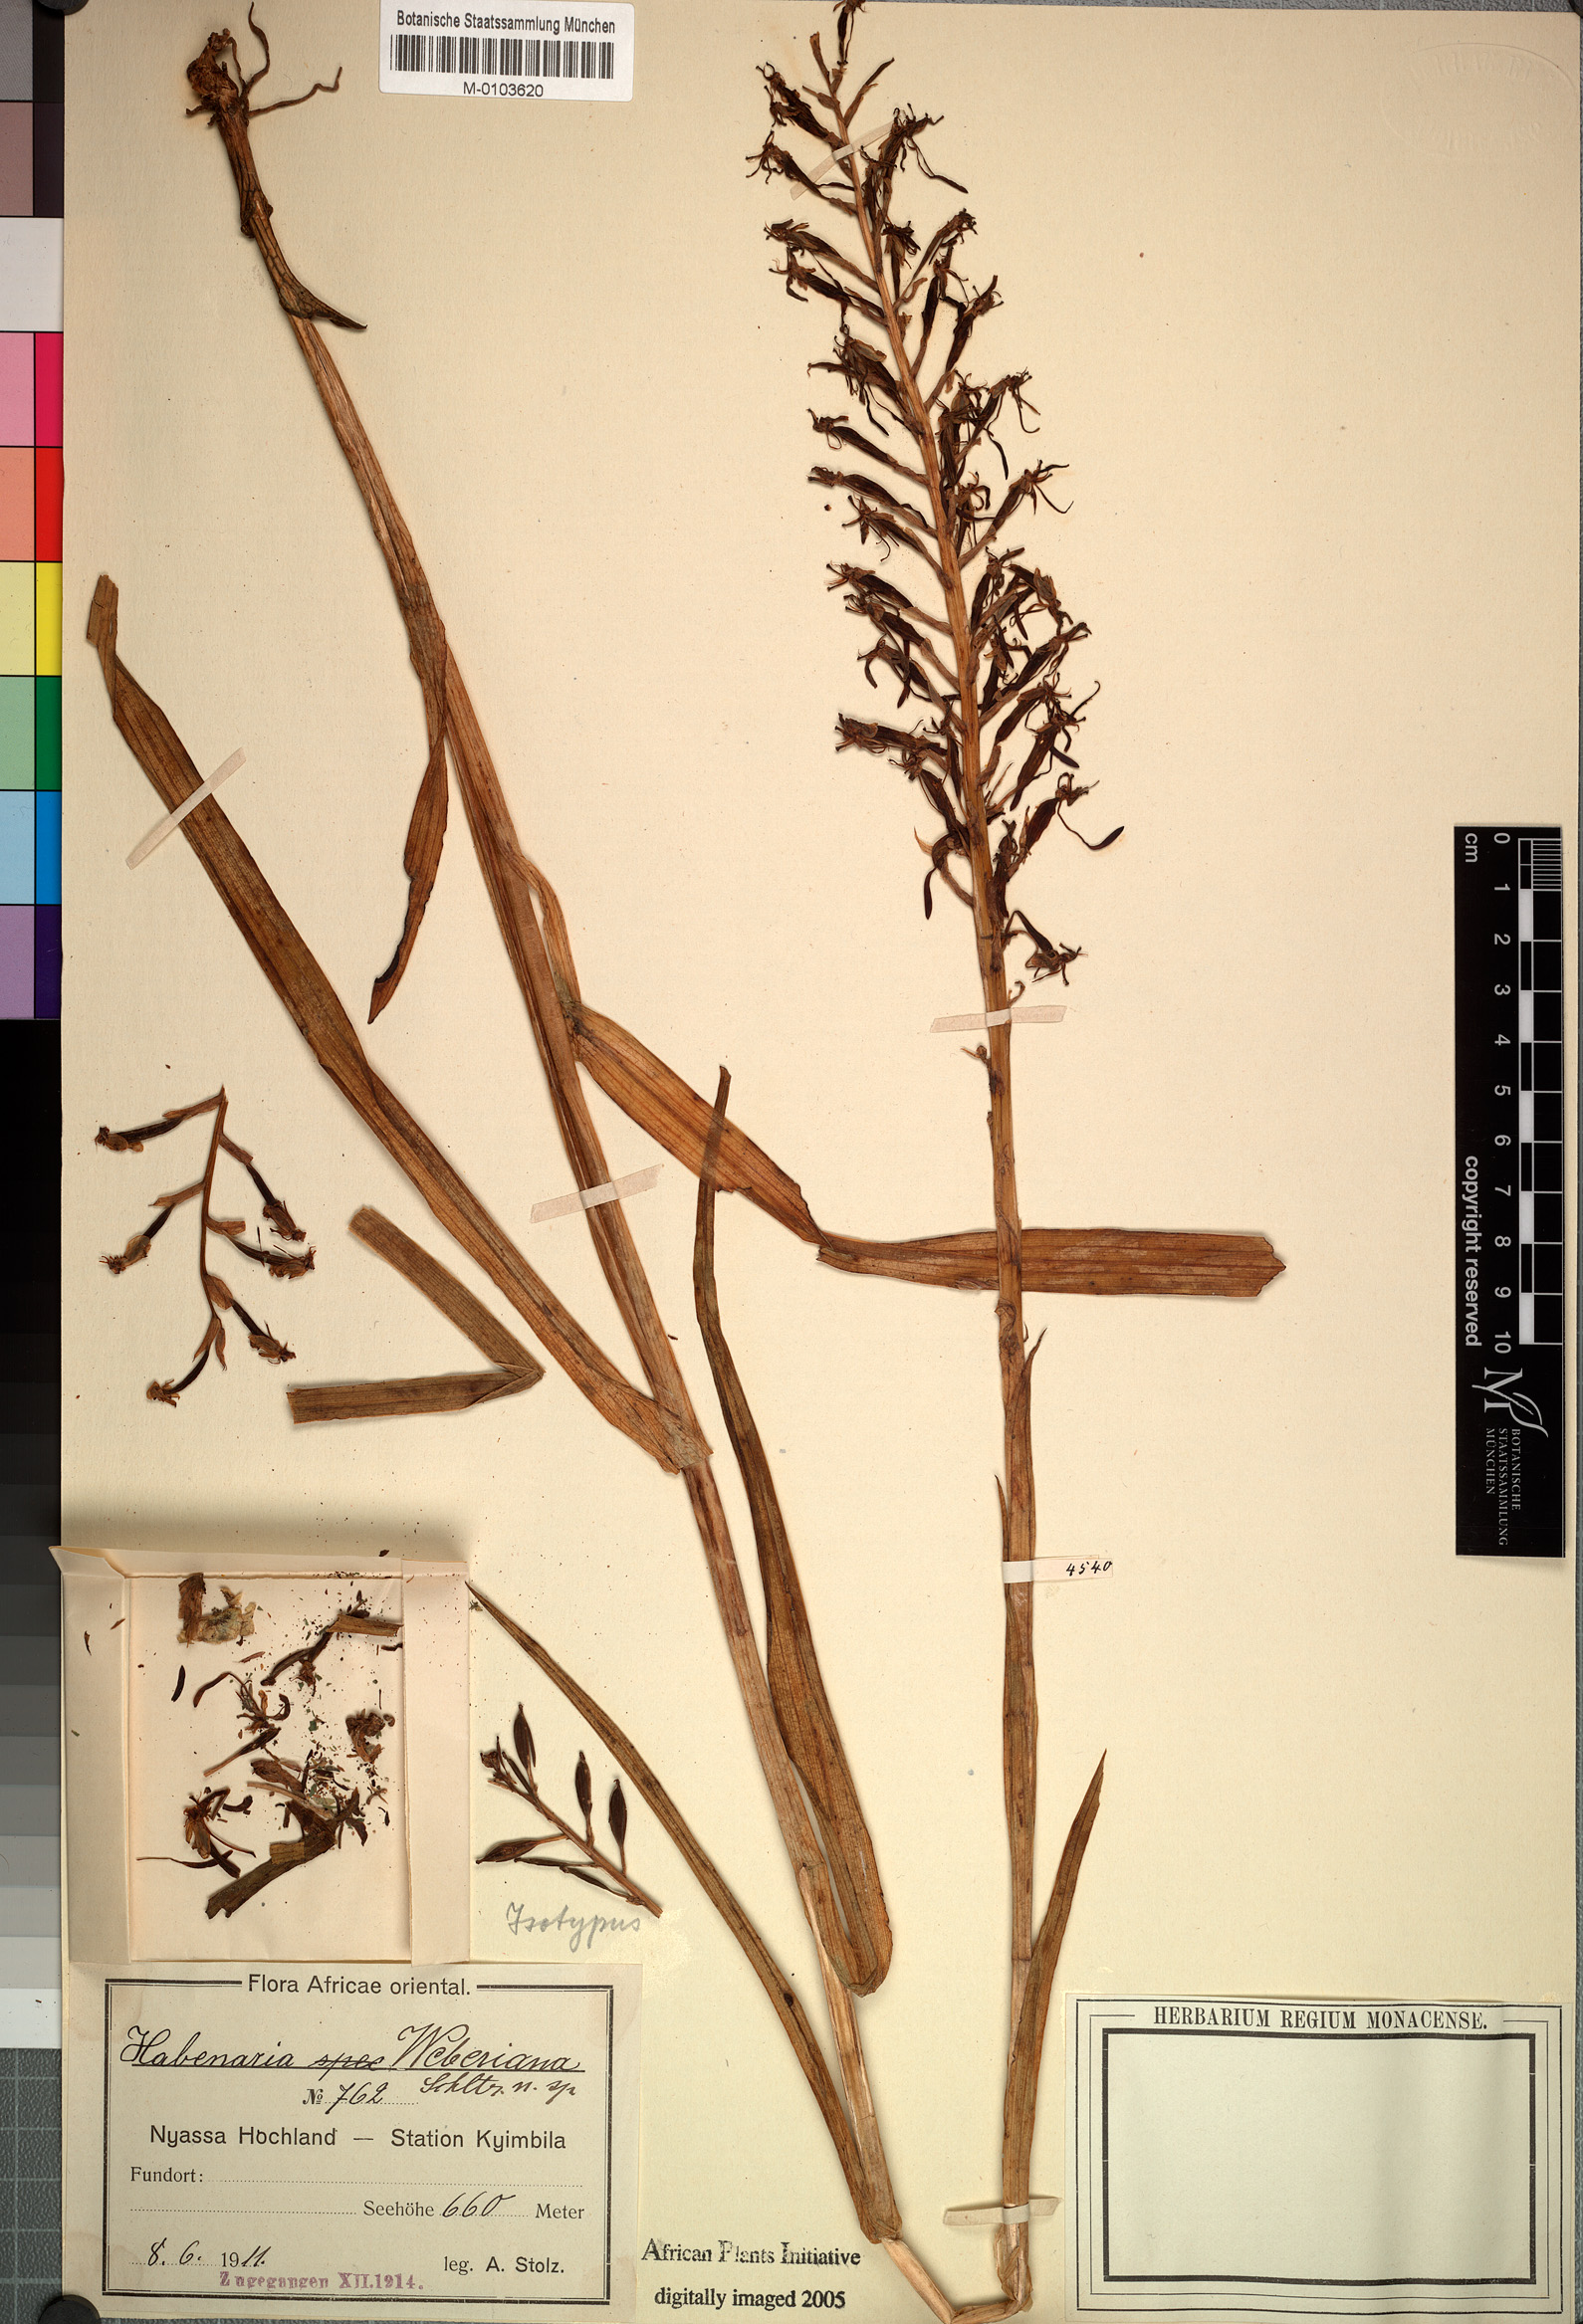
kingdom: Plantae
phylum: Tracheophyta
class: Liliopsida
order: Asparagales
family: Orchidaceae
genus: Habenaria
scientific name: Habenaria weberiana
